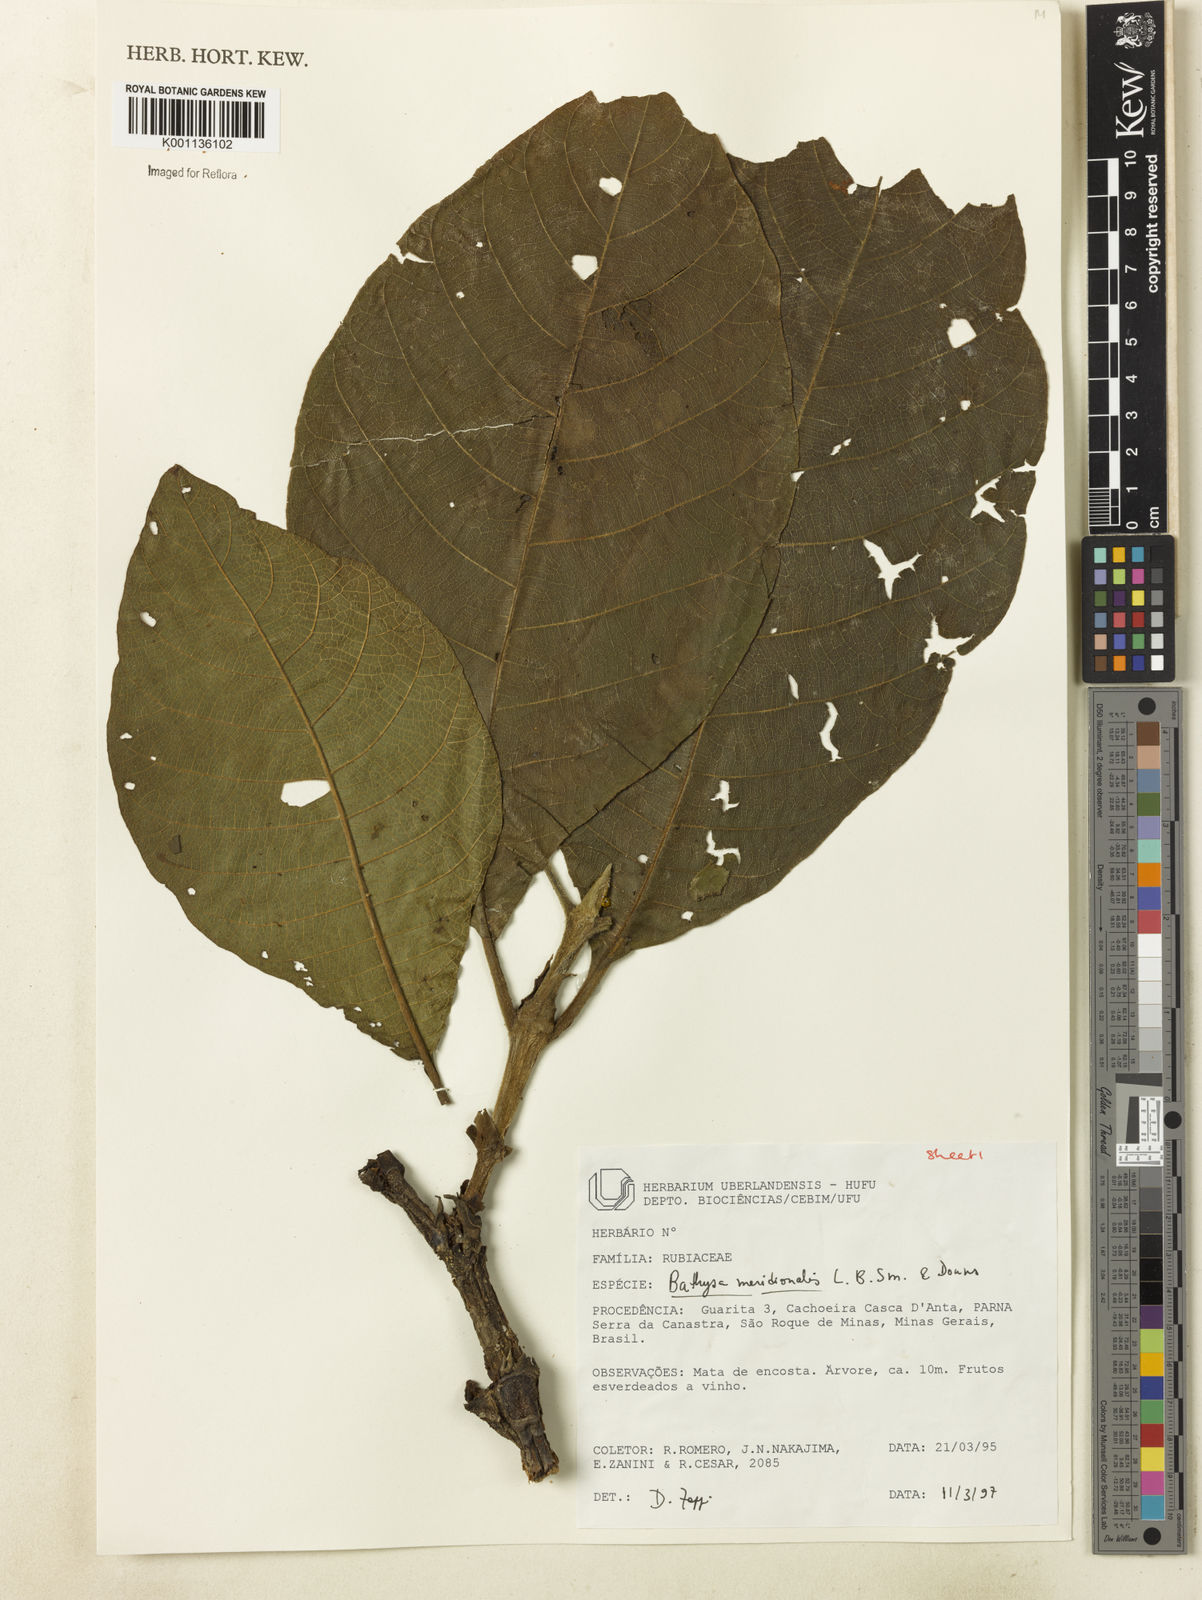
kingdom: Plantae
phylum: Tracheophyta
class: Magnoliopsida
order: Gentianales
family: Rubiaceae
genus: Bathysa
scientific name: Bathysa australis
